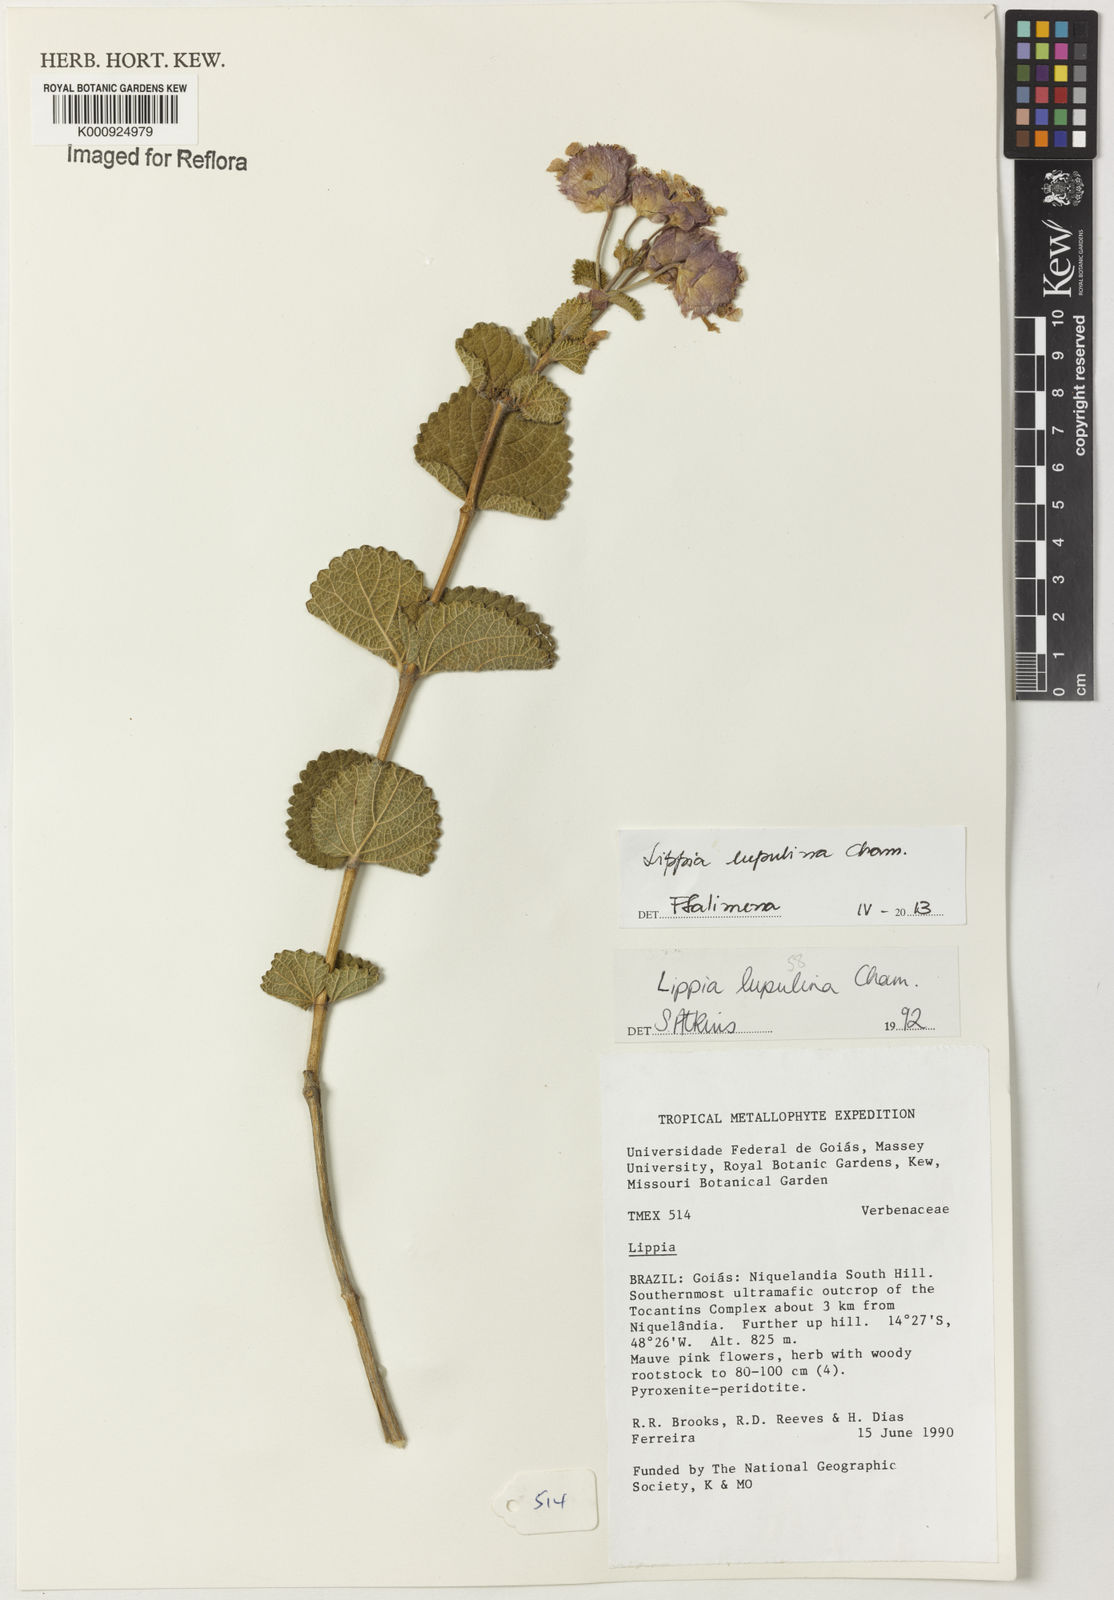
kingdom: Plantae
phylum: Tracheophyta
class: Magnoliopsida
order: Lamiales
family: Verbenaceae
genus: Lippia
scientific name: Lippia lupulina
